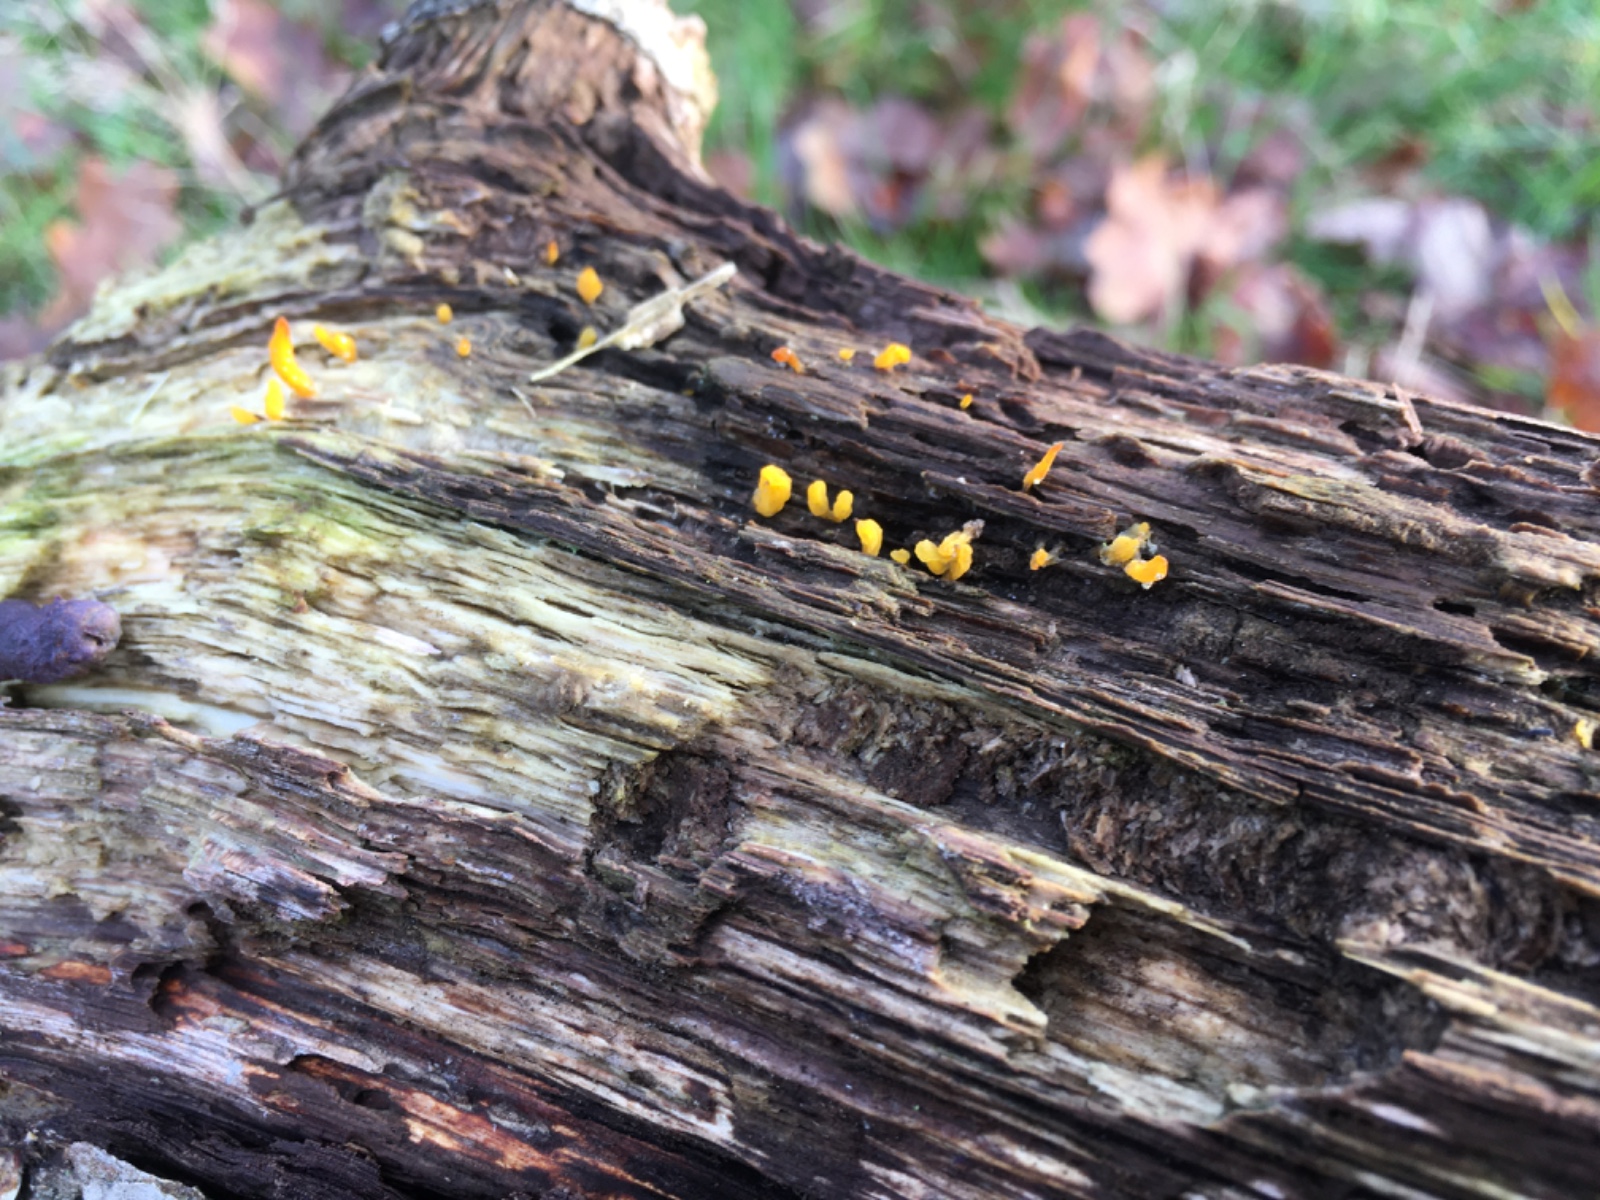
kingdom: Fungi
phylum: Basidiomycota
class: Dacrymycetes
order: Dacrymycetales
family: Dacrymycetaceae
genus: Calocera
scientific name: Calocera cornea
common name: liden guldgaffel
